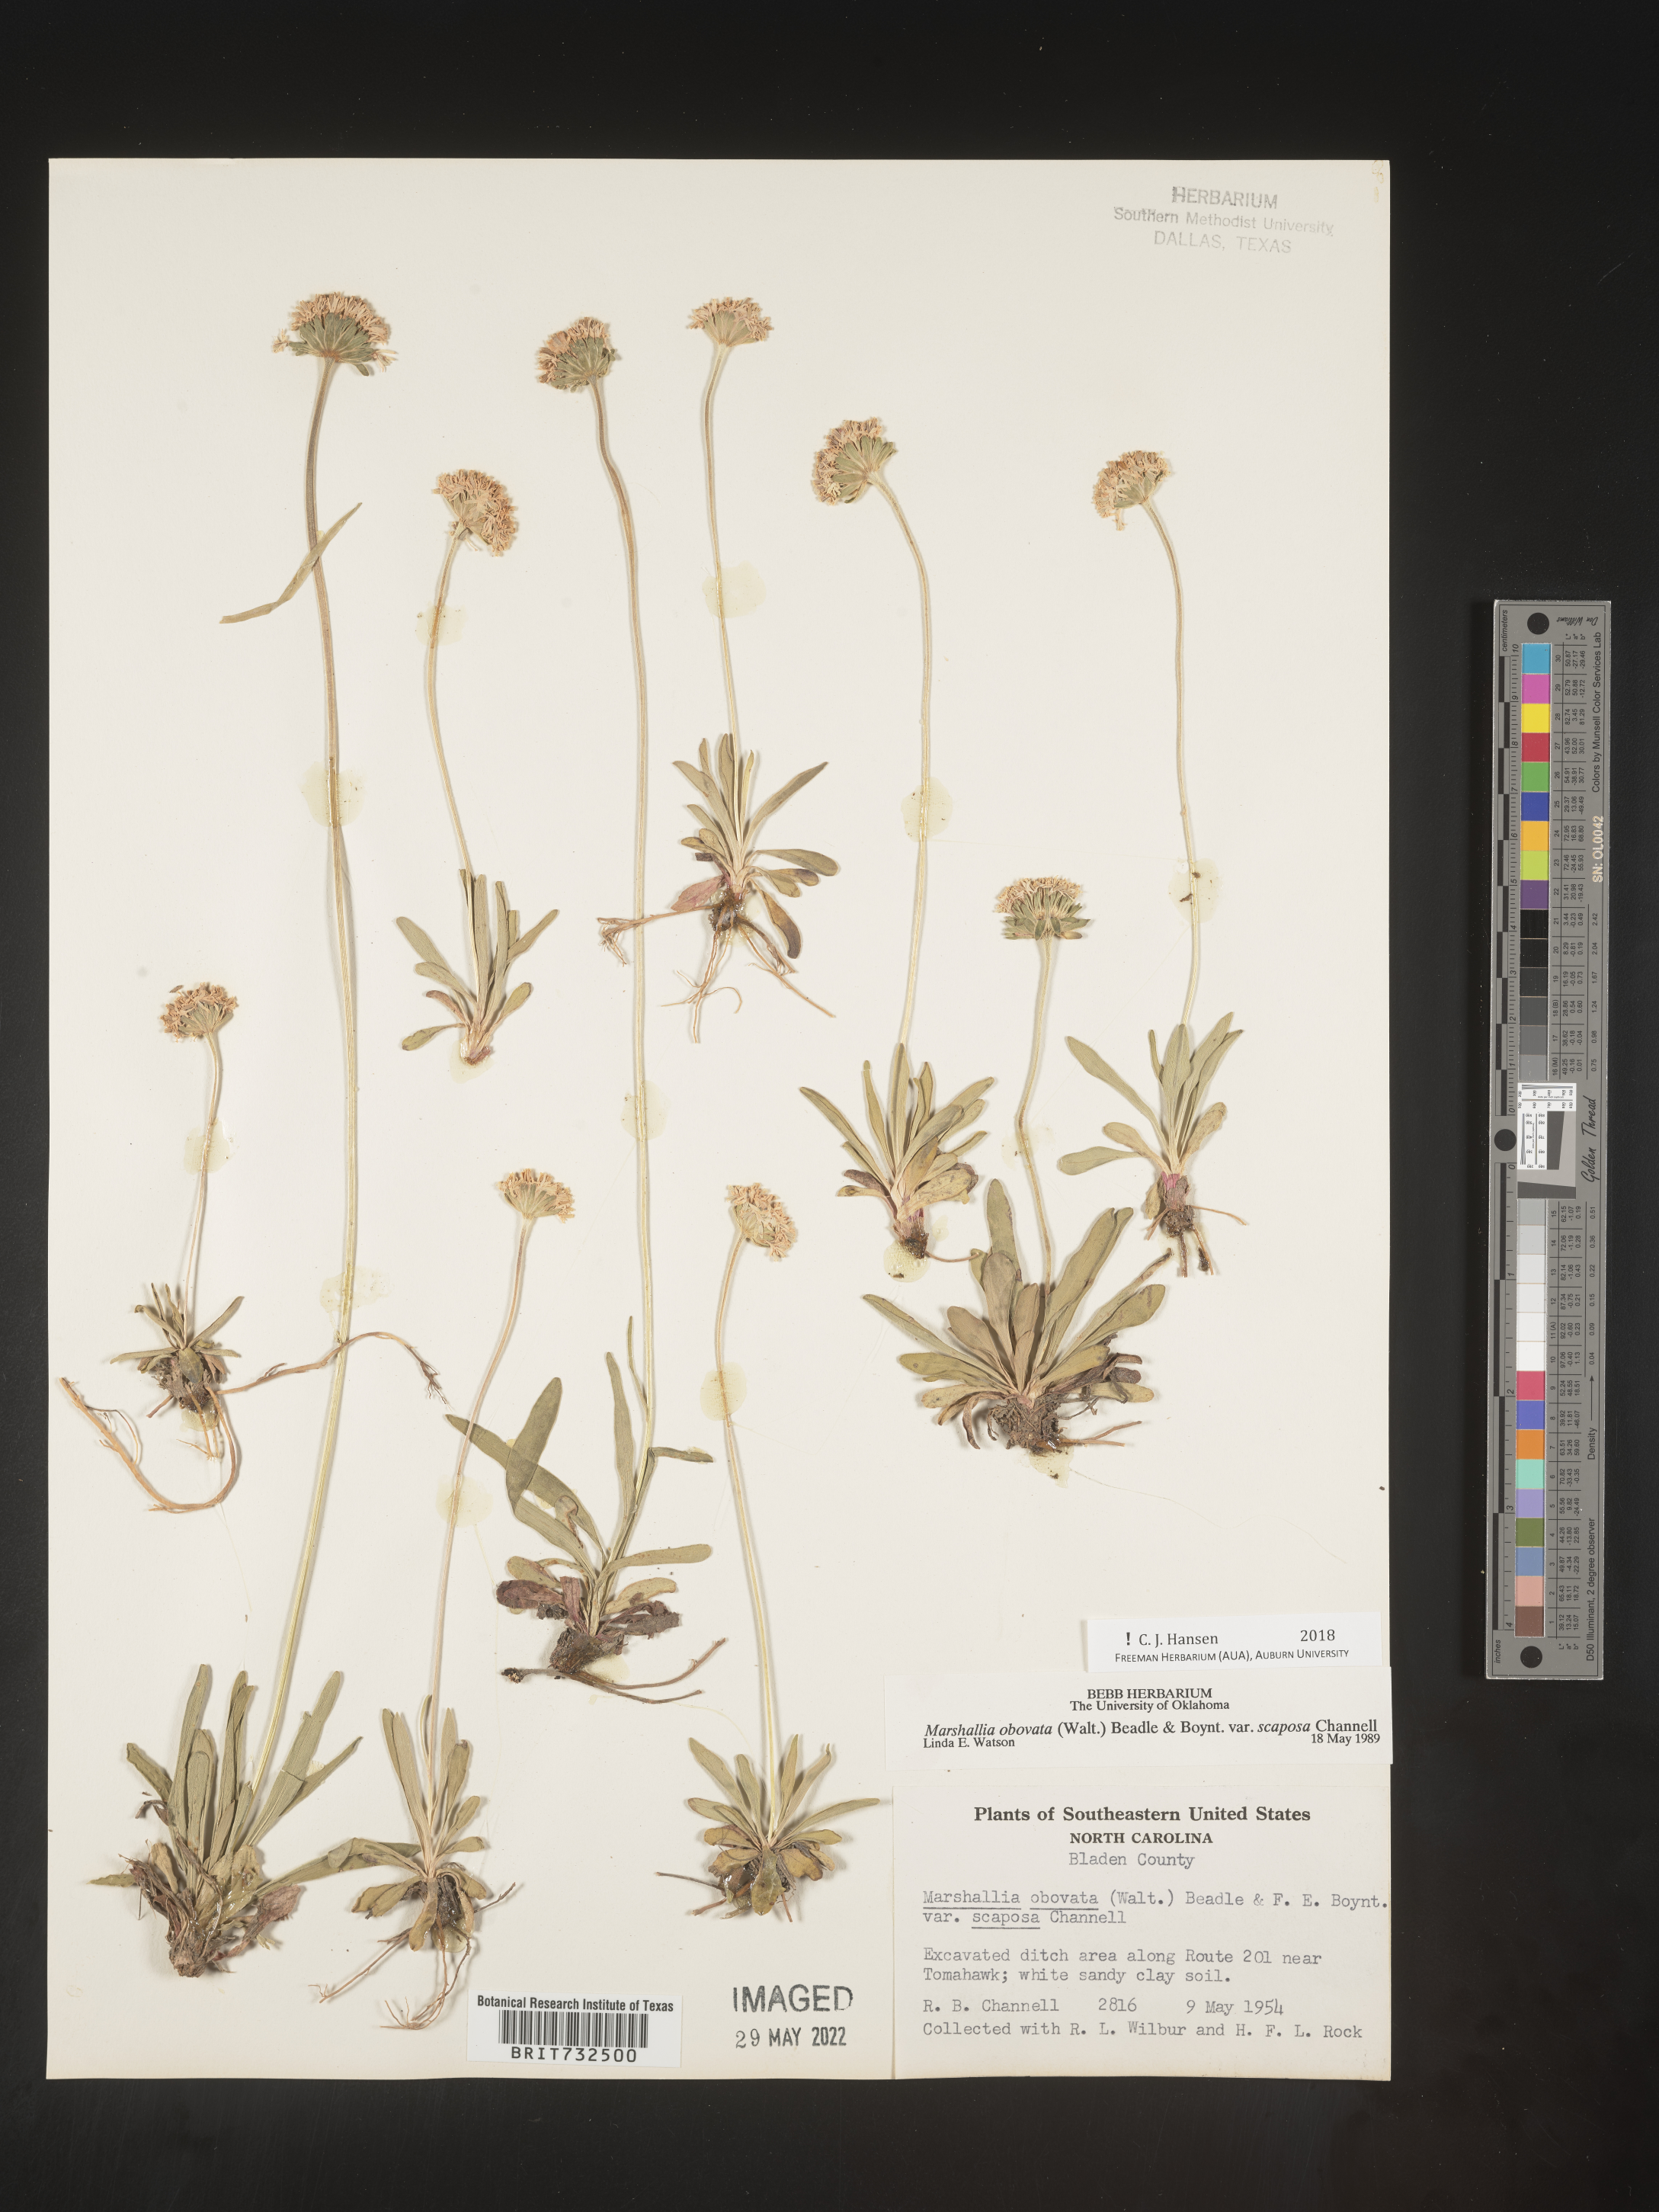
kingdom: Plantae
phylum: Tracheophyta
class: Magnoliopsida
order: Asterales
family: Asteraceae
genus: Marshallia
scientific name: Marshallia obovata
